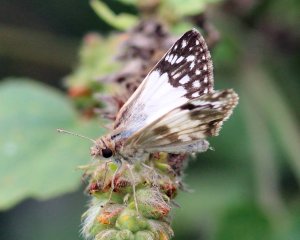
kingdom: Animalia
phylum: Arthropoda
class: Insecta
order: Lepidoptera
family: Hesperiidae
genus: Heliopetes
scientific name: Heliopetes sublinea
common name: East-Mexican White-Skipper
